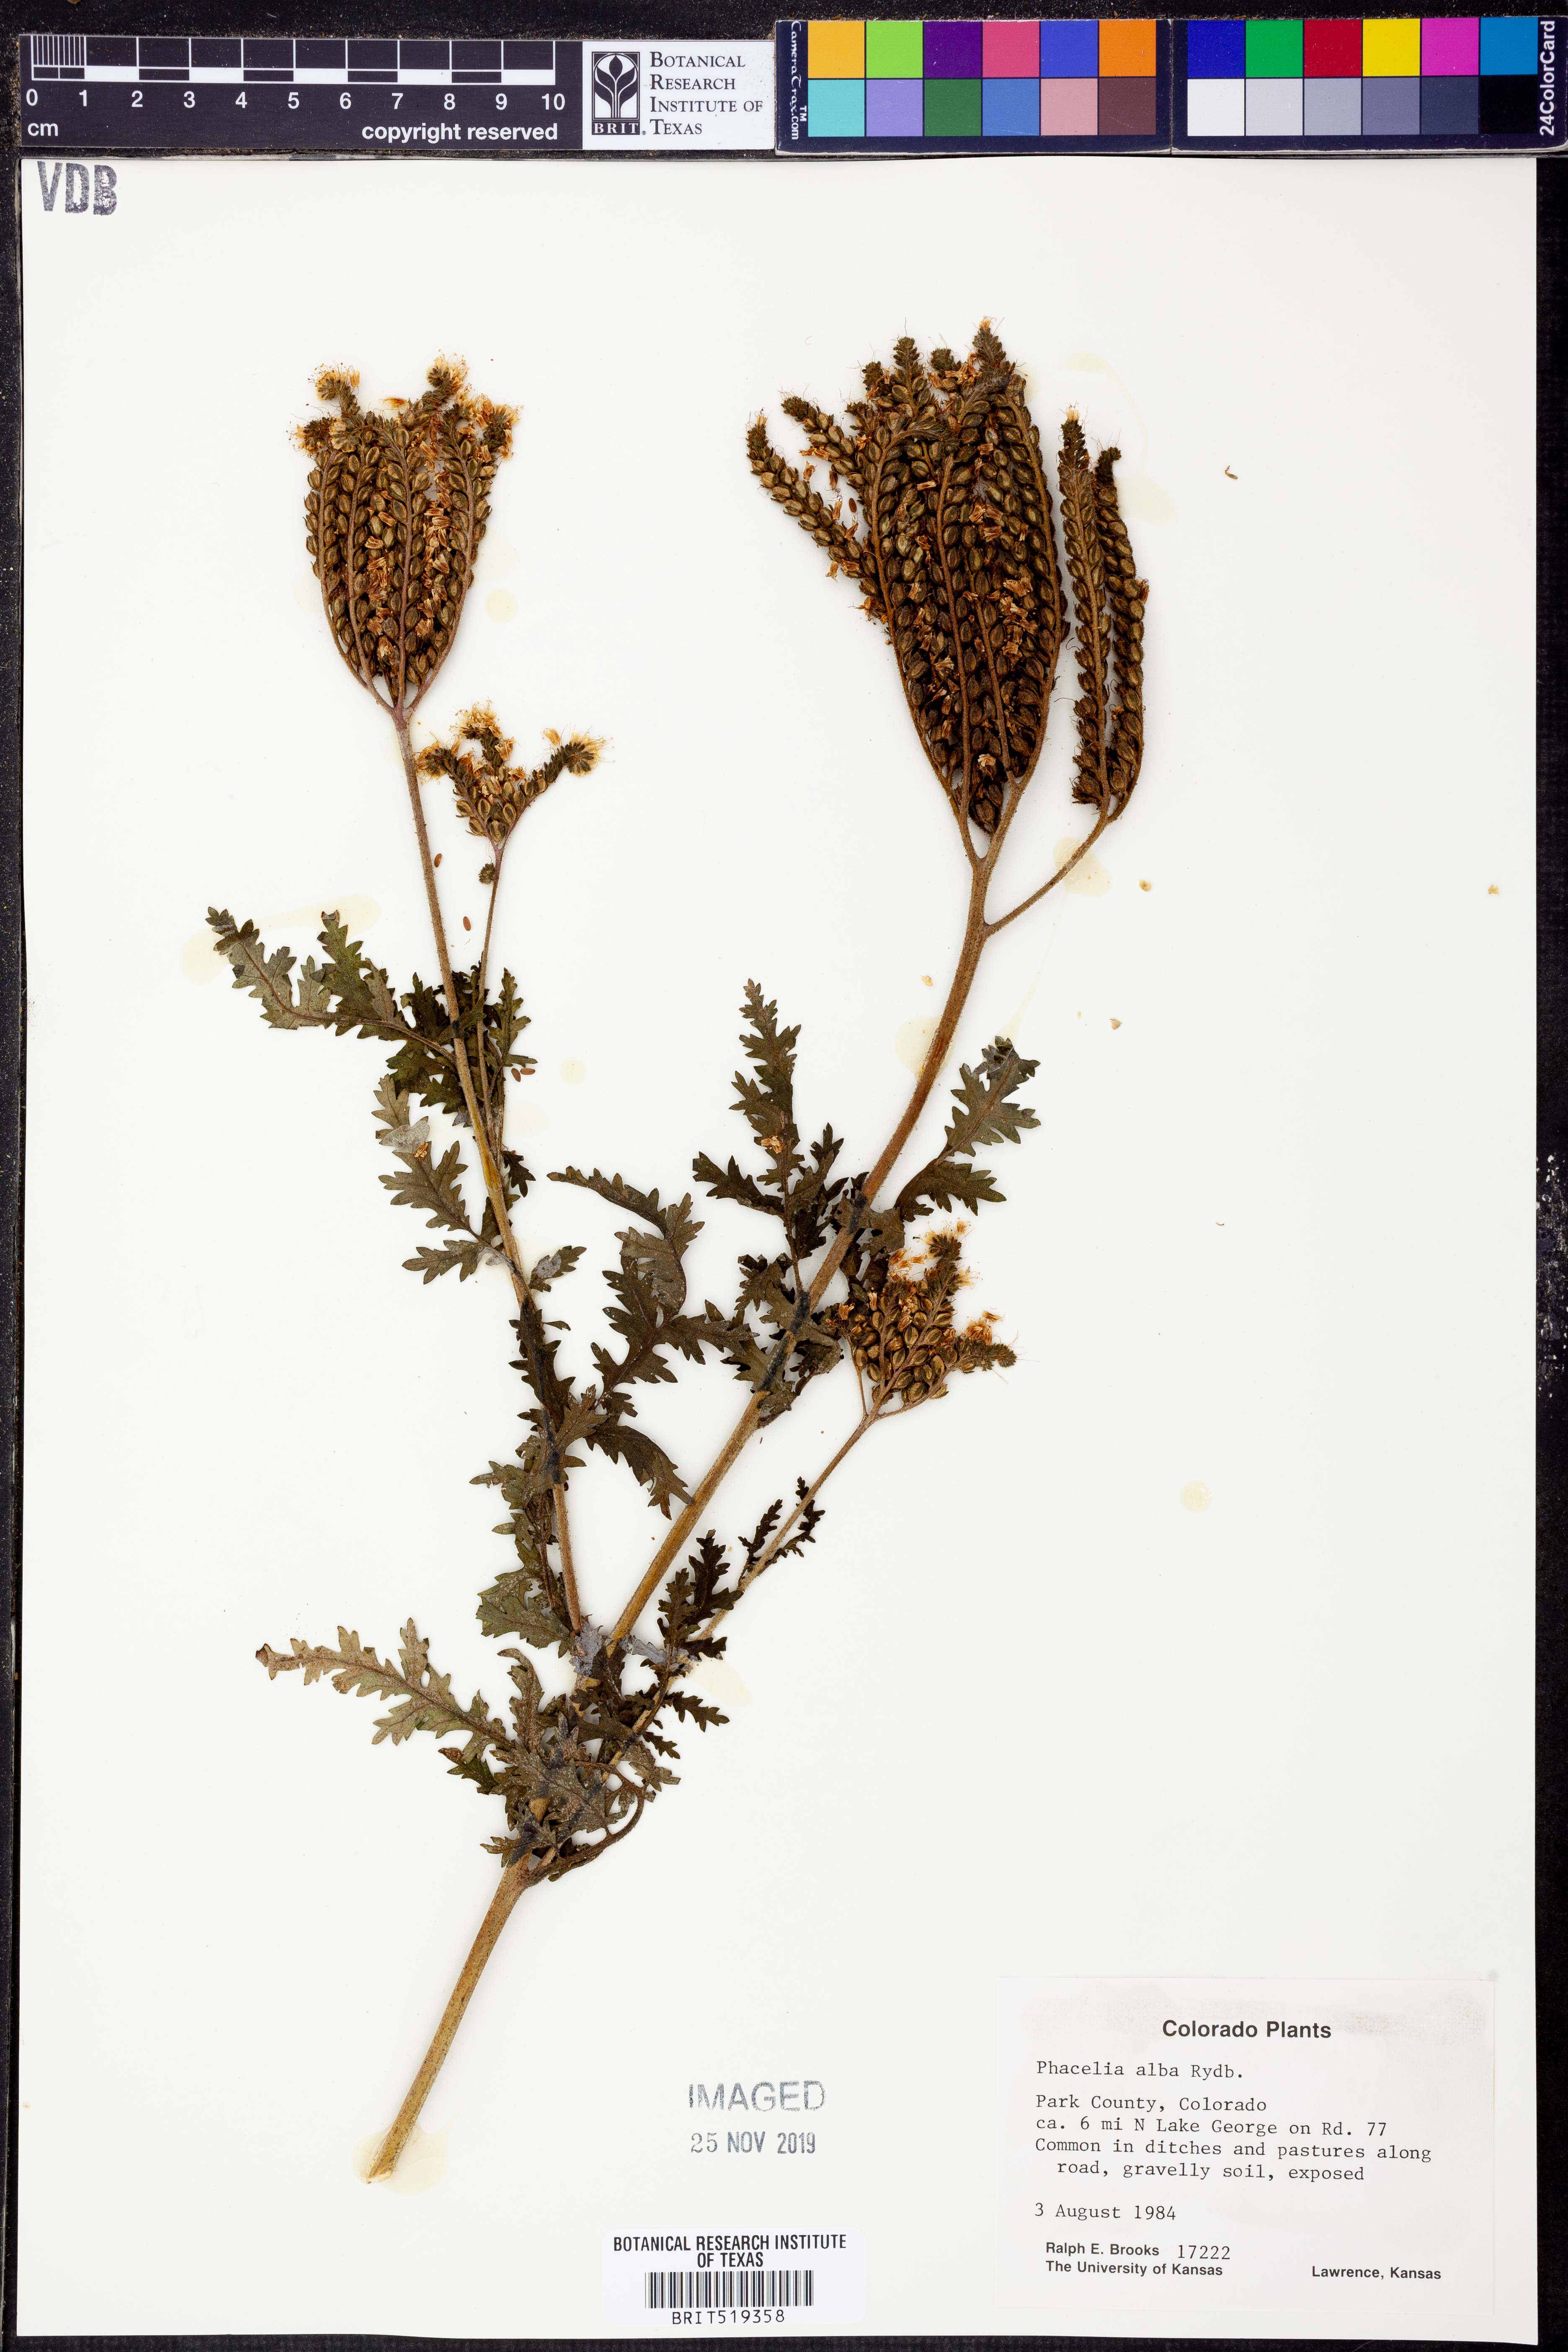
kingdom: Plantae
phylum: Tracheophyta
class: Magnoliopsida
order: Boraginales
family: Hydrophyllaceae
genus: Phacelia
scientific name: Phacelia alba
